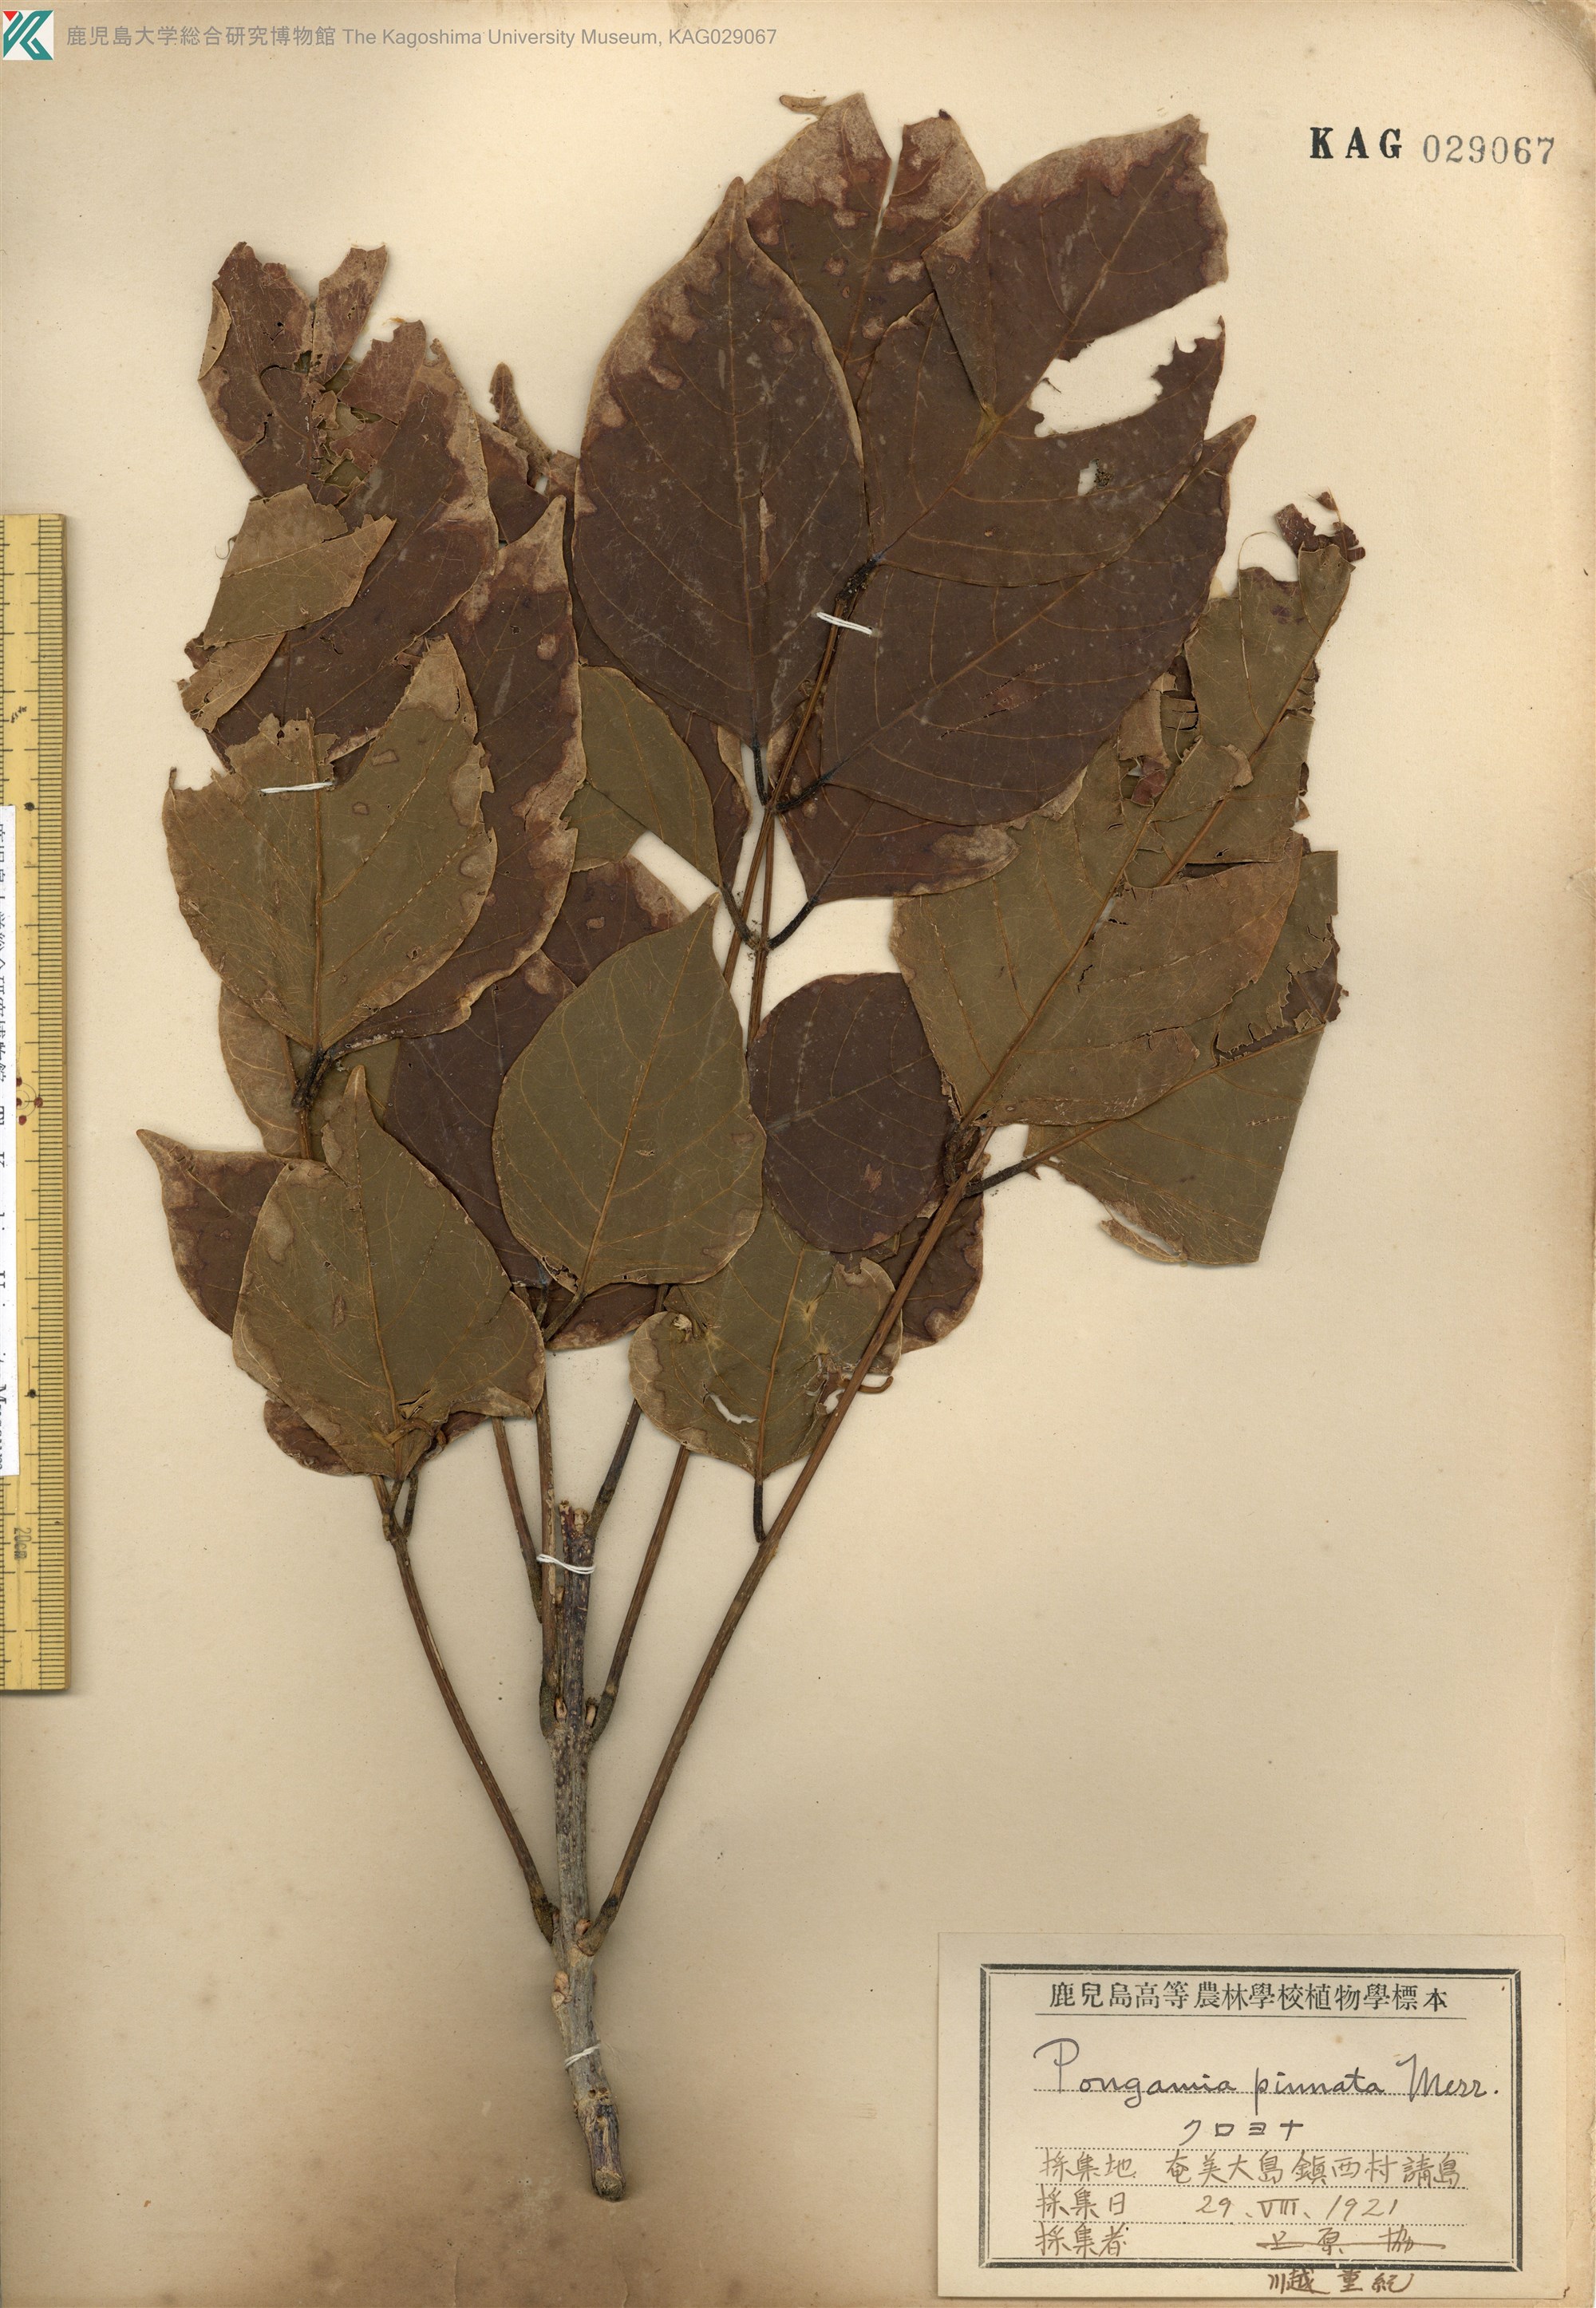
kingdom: Plantae
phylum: Tracheophyta
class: Magnoliopsida
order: Fabales
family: Fabaceae
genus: Pongamia
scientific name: Pongamia pinnata
